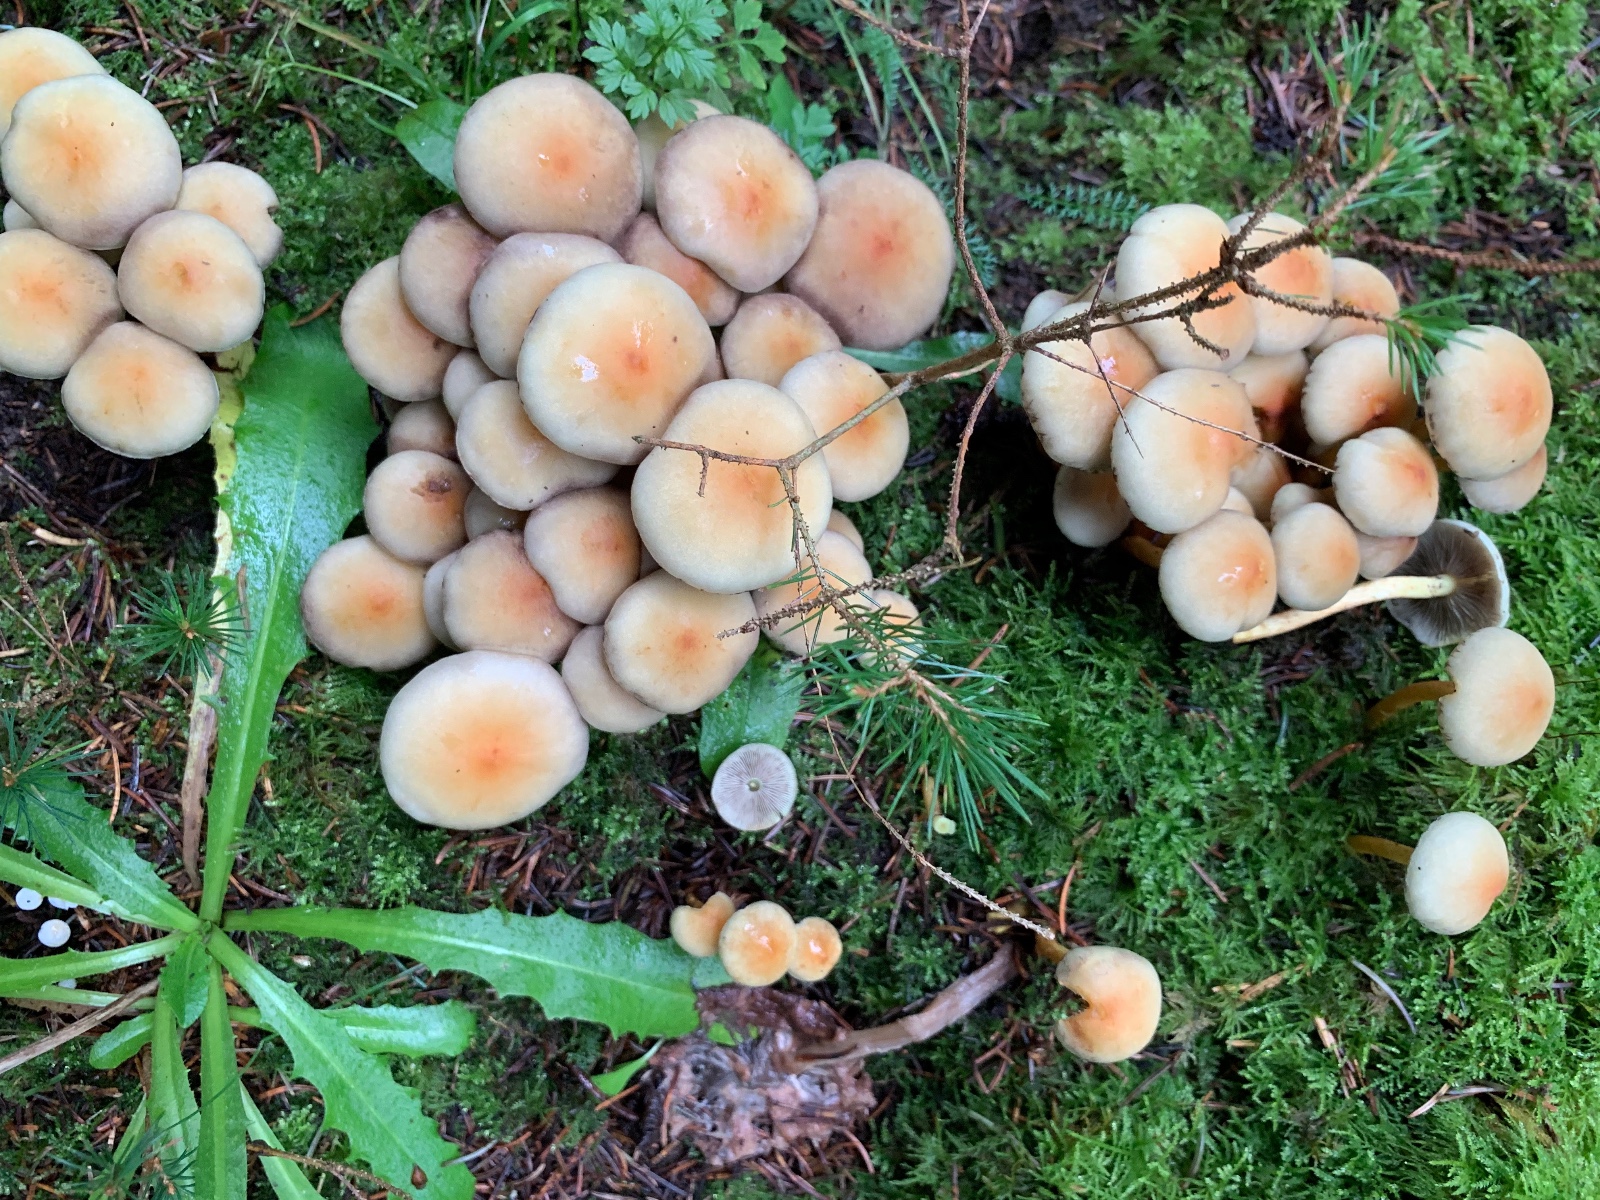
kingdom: Fungi
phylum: Basidiomycota
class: Agaricomycetes
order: Agaricales
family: Strophariaceae
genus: Hypholoma
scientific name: Hypholoma fasciculare
